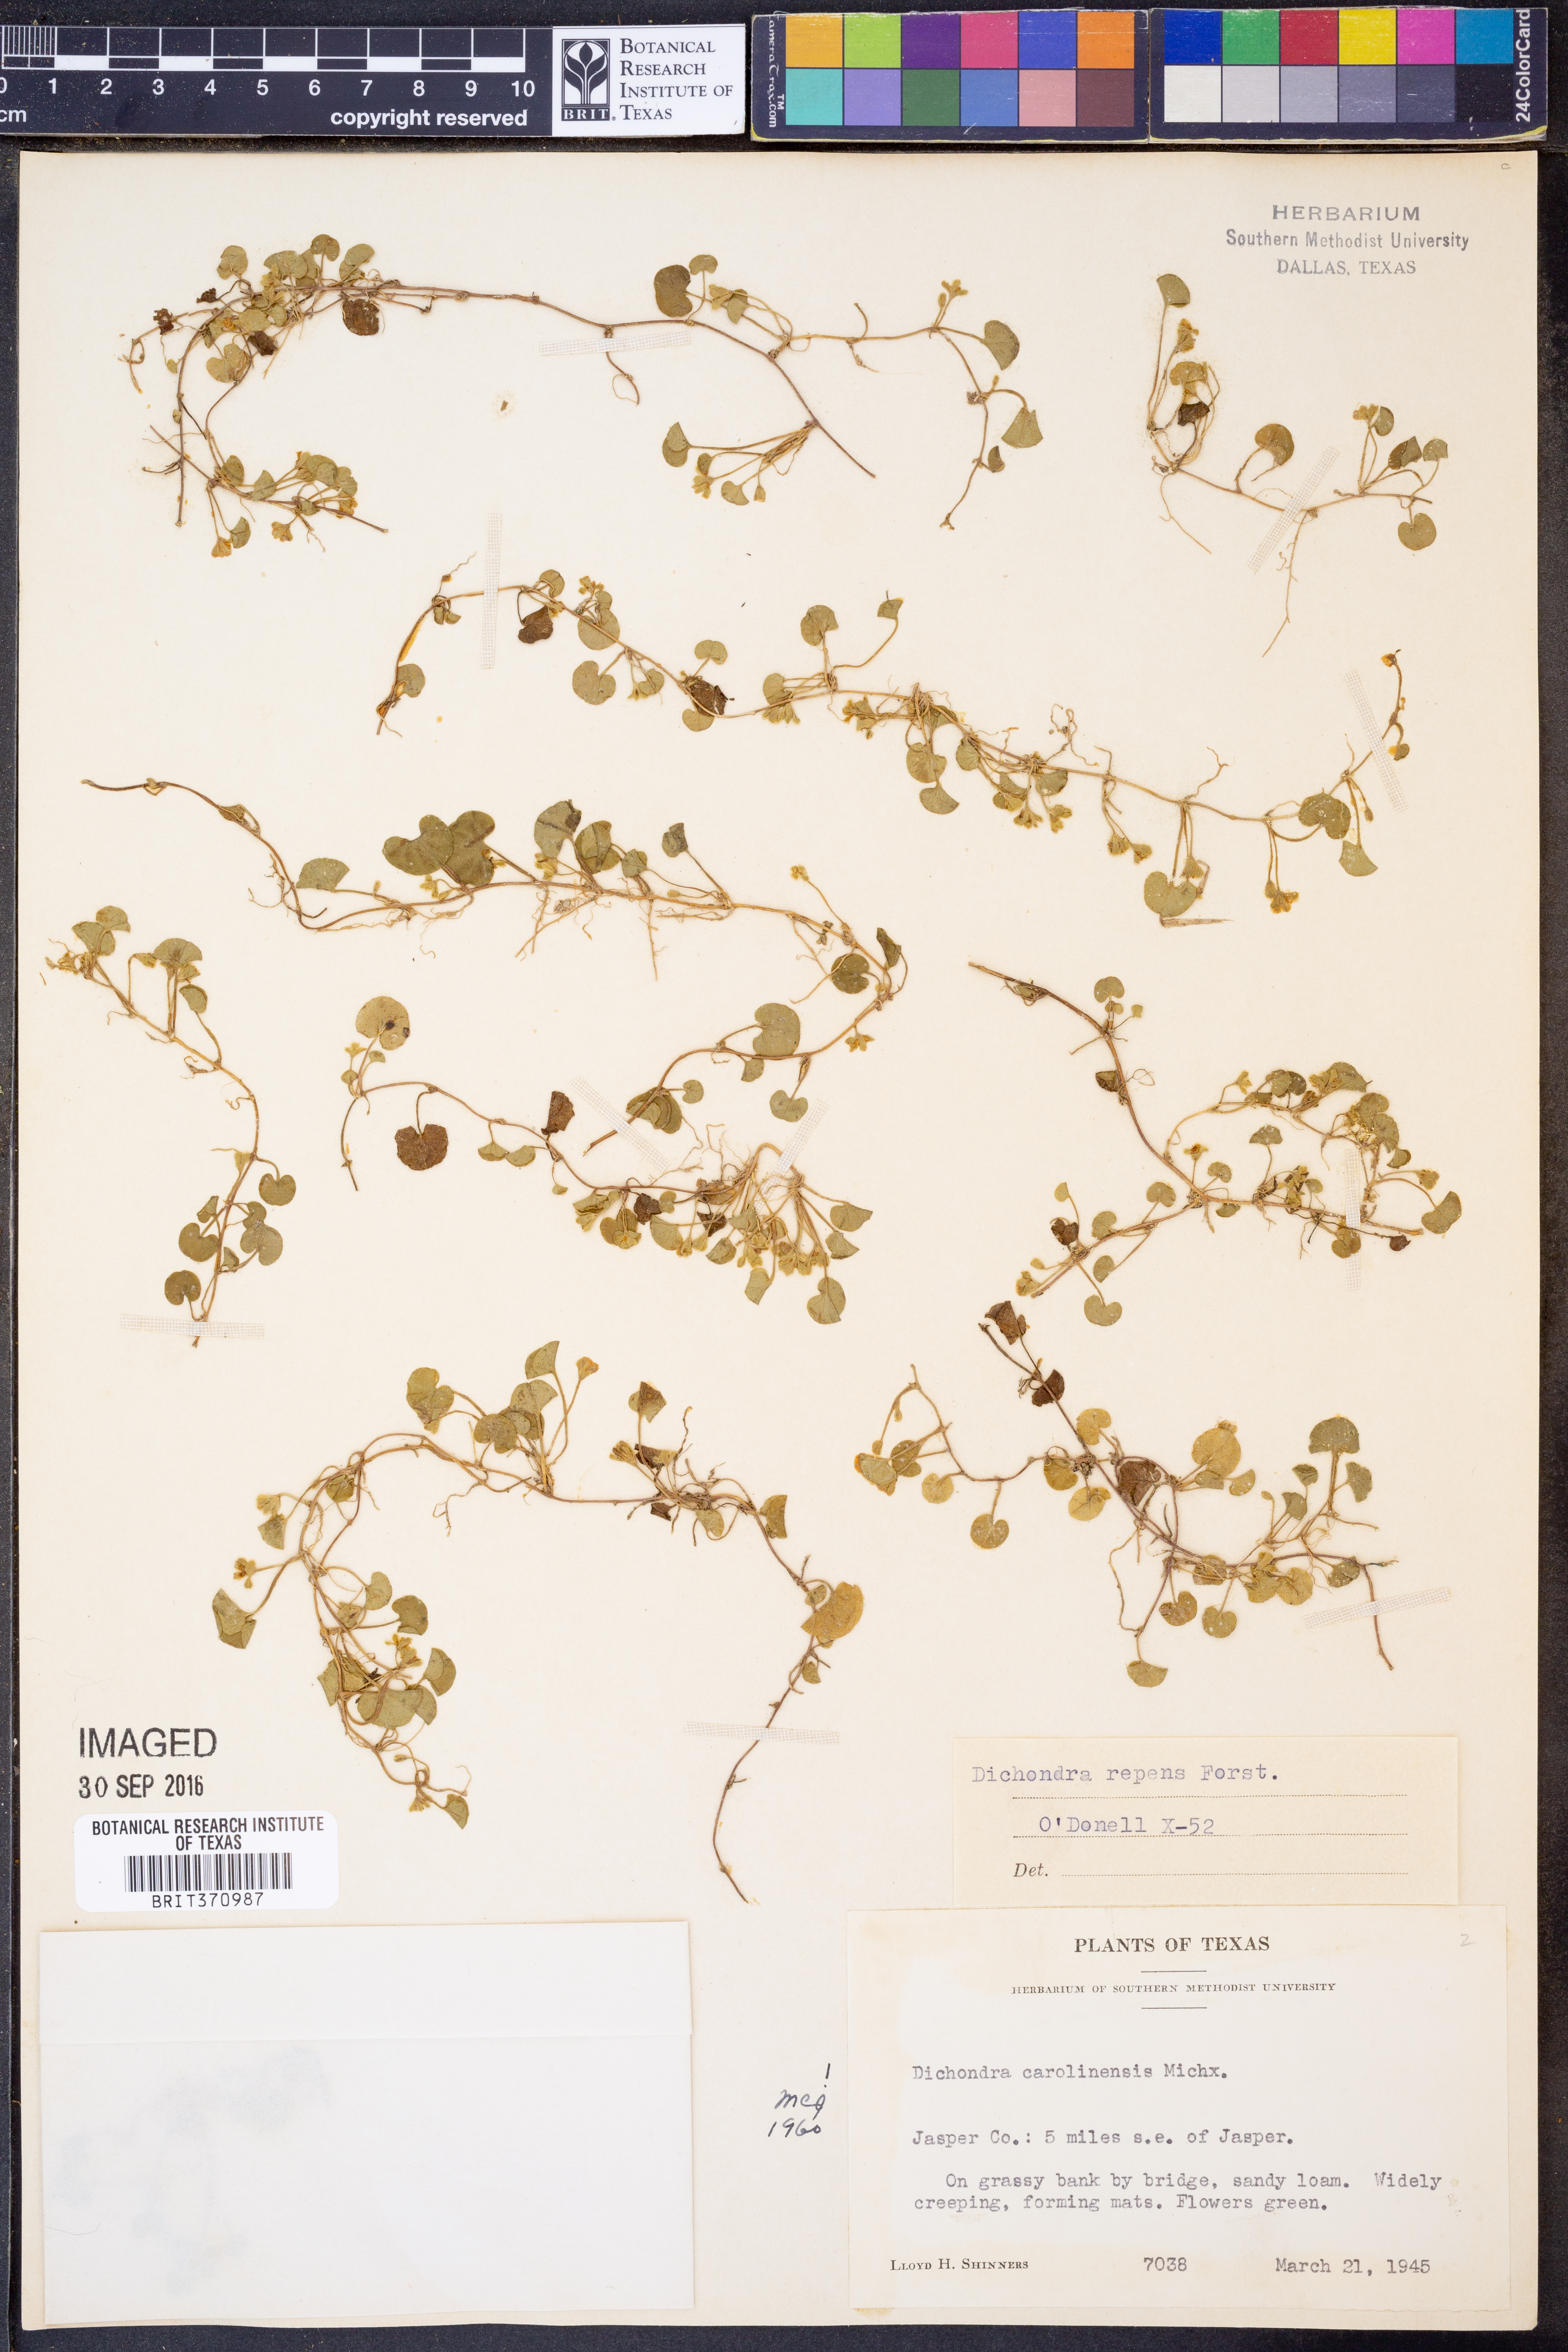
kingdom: Plantae
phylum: Tracheophyta
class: Magnoliopsida
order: Solanales
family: Convolvulaceae
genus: Dichondra
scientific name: Dichondra carolinensis
